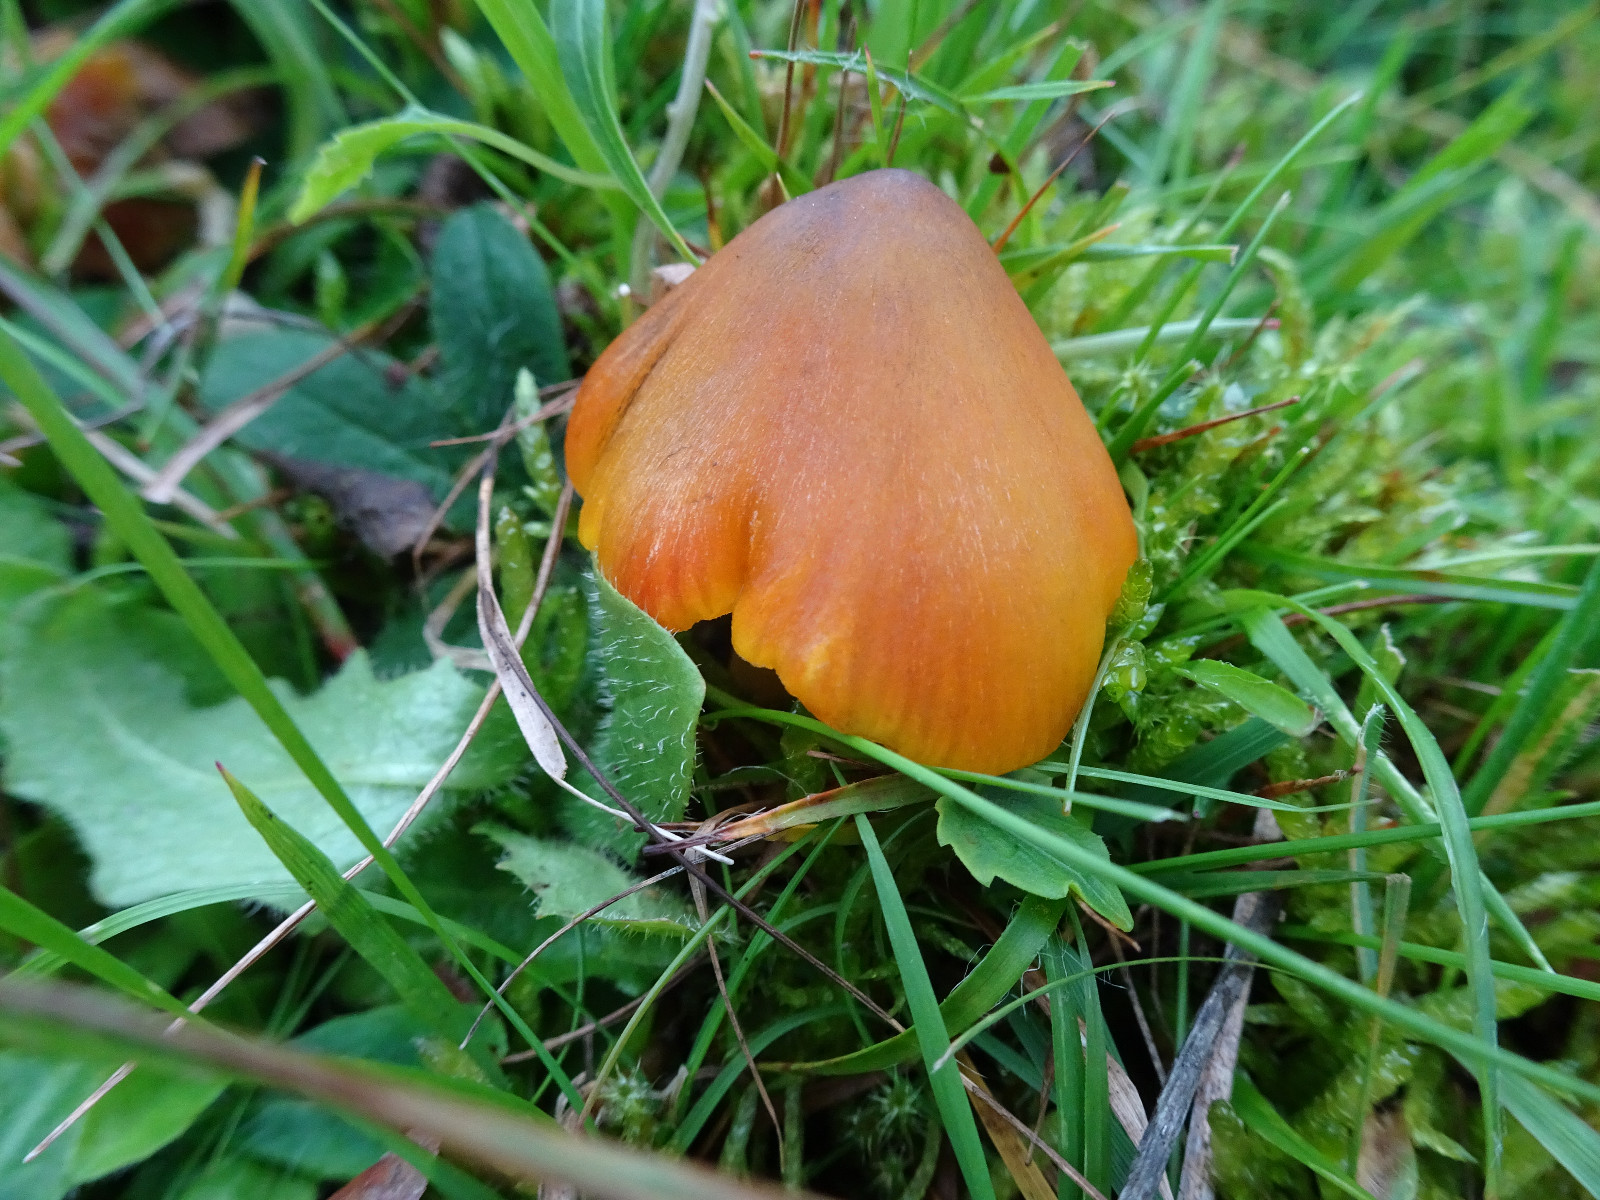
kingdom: Fungi
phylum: Basidiomycota
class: Agaricomycetes
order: Agaricales
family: Hygrophoraceae
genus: Hygrocybe
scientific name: Hygrocybe conica
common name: kegle-vokshat
